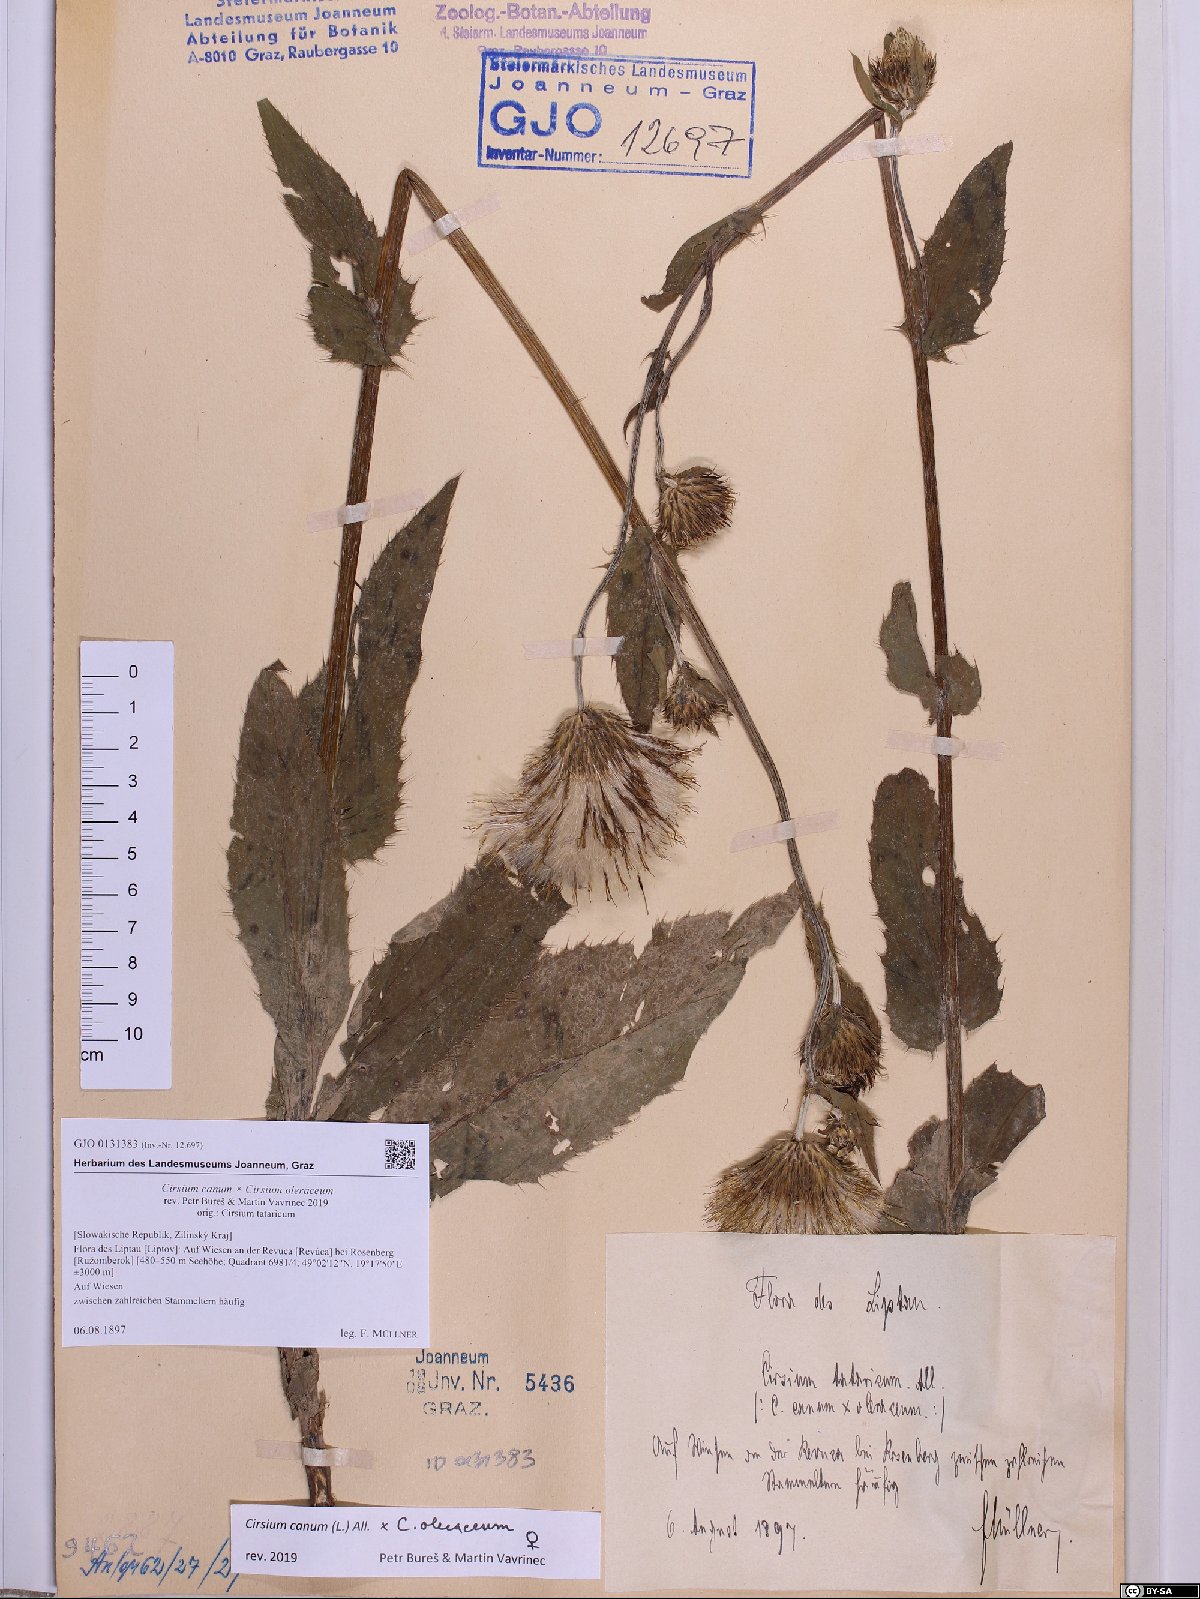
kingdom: Plantae
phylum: Tracheophyta
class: Magnoliopsida
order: Asterales
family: Asteraceae
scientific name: Asteraceae
